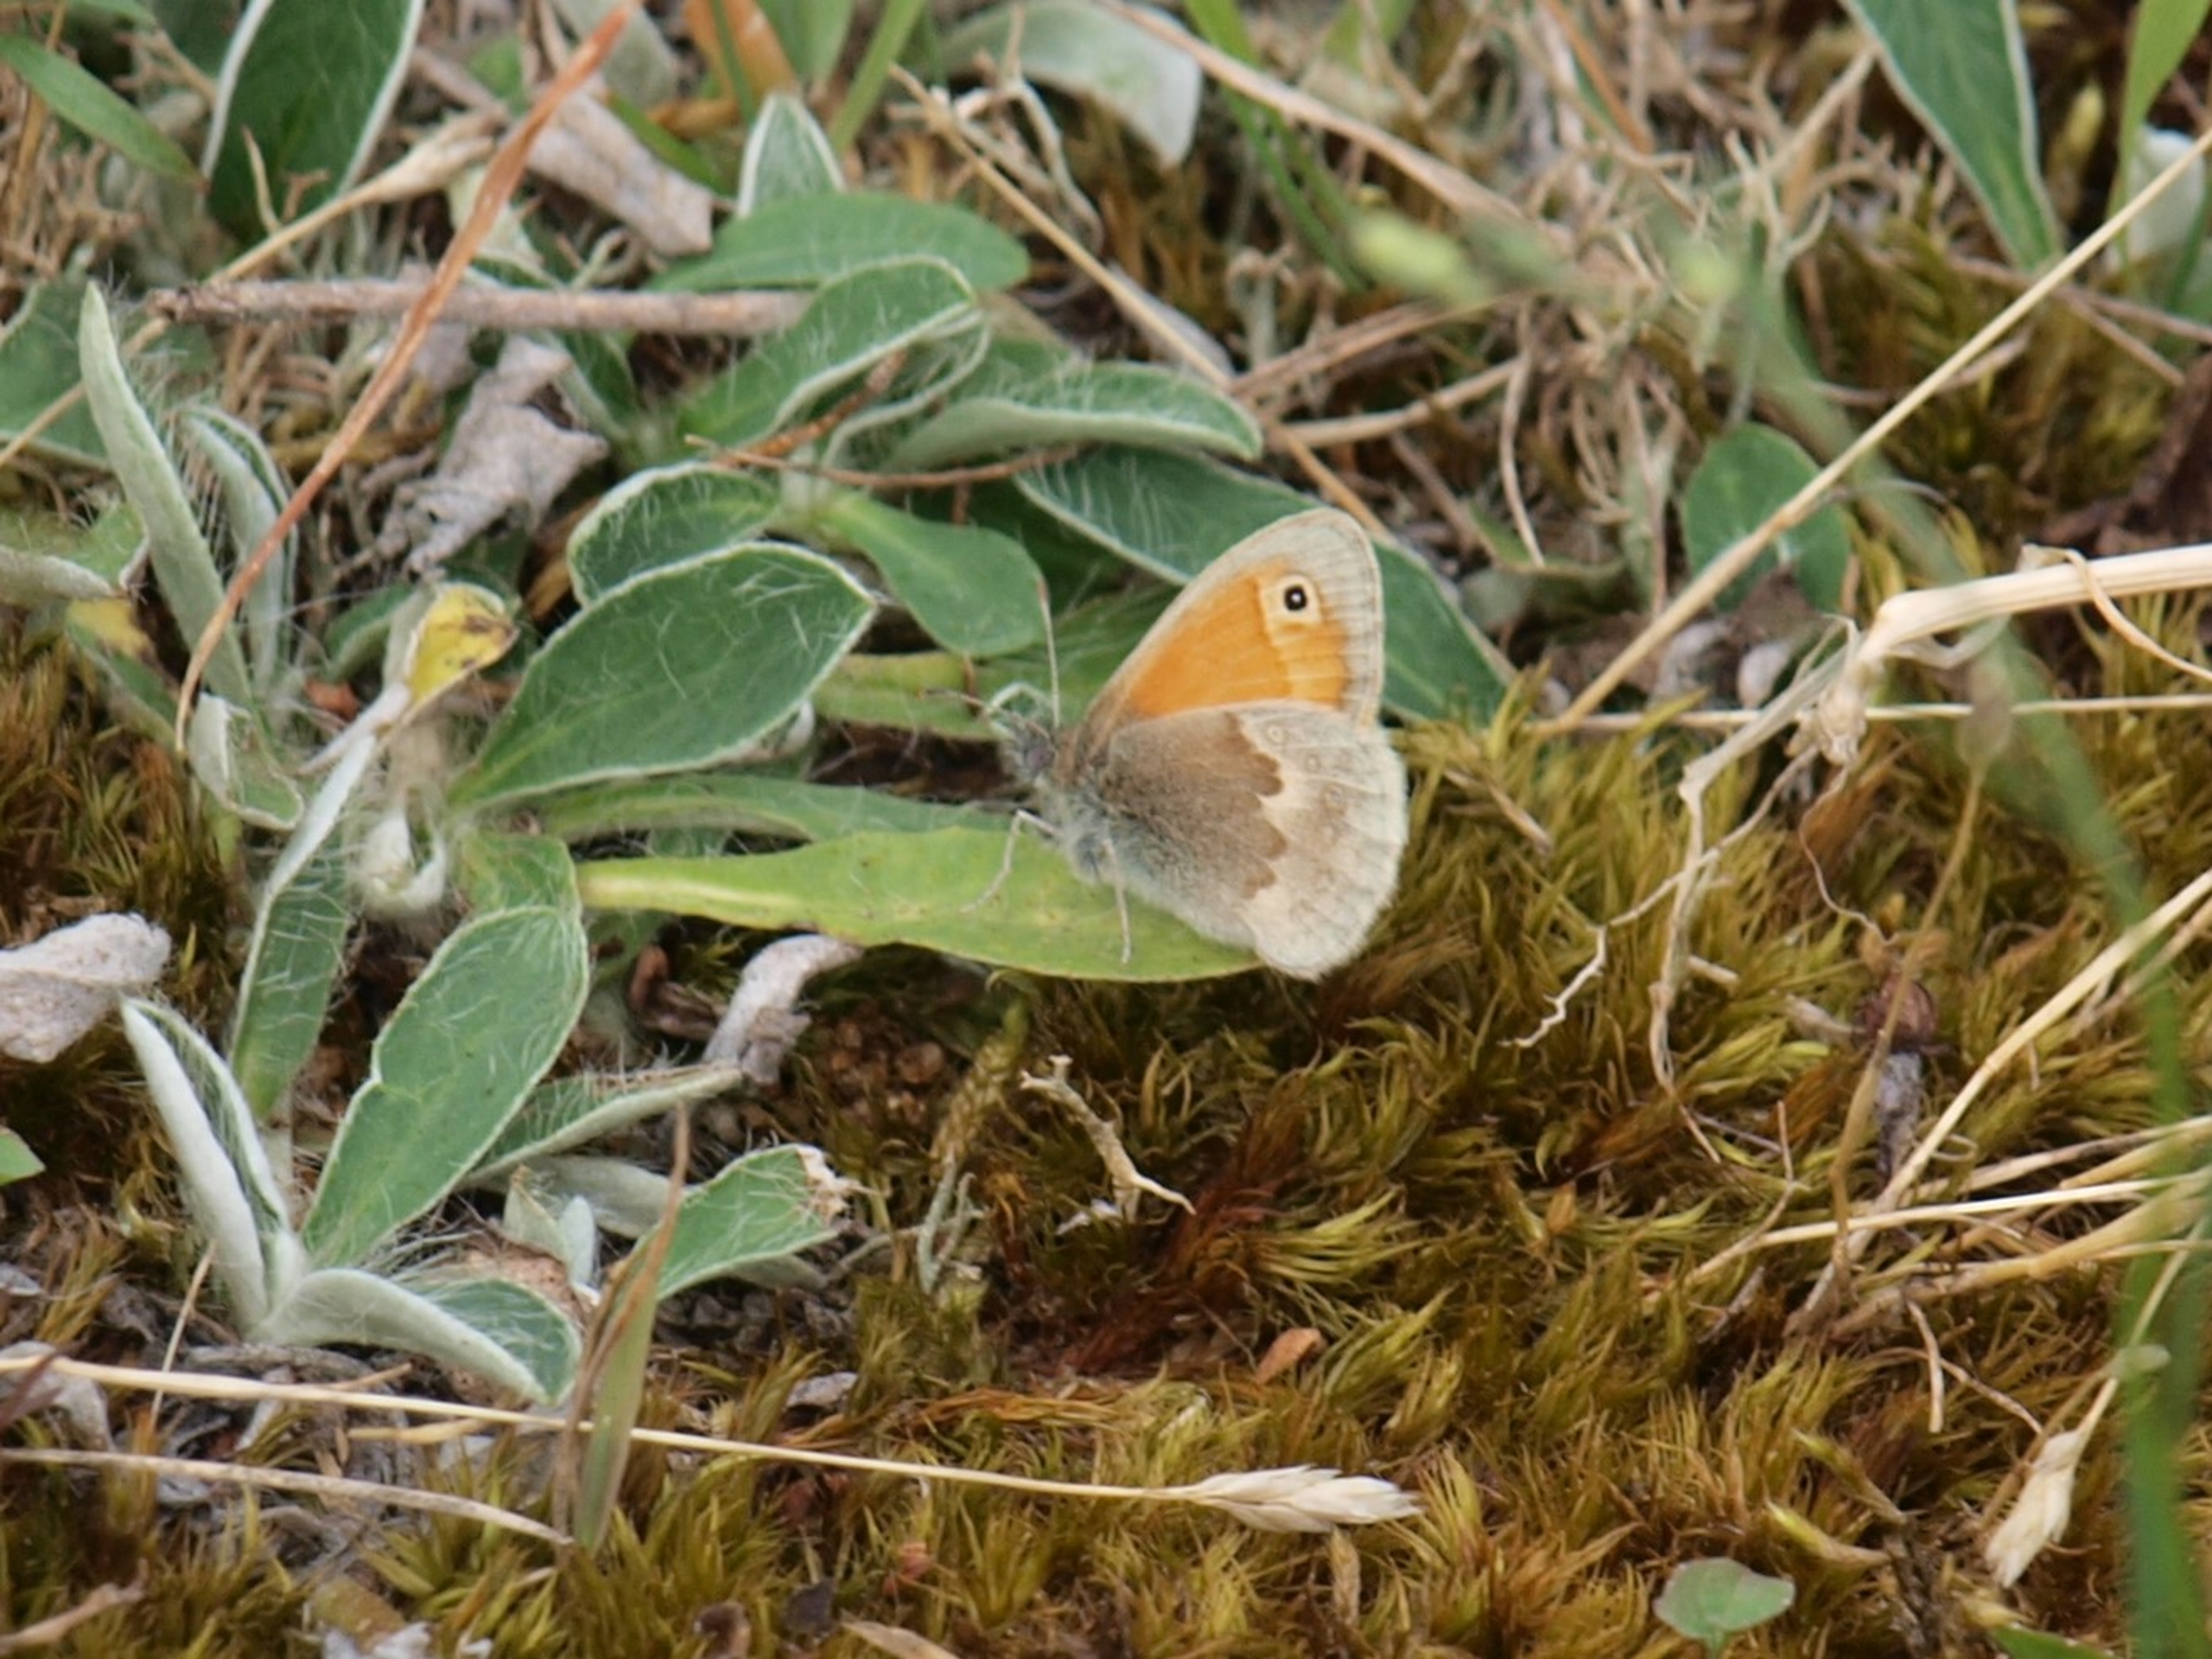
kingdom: Animalia
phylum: Arthropoda
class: Insecta
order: Lepidoptera
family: Nymphalidae
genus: Coenonympha
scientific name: Coenonympha pamphilus
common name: Okkergul randøje
